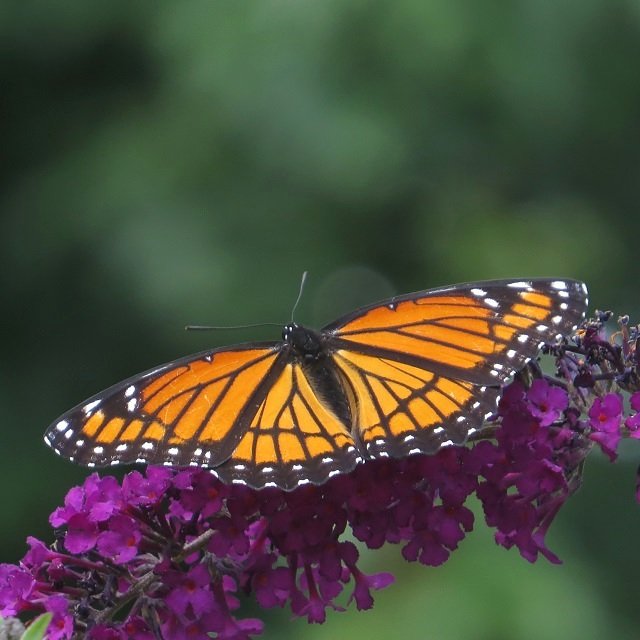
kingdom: Animalia
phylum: Arthropoda
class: Insecta
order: Lepidoptera
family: Nymphalidae
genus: Limenitis
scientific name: Limenitis archippus
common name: Viceroy
